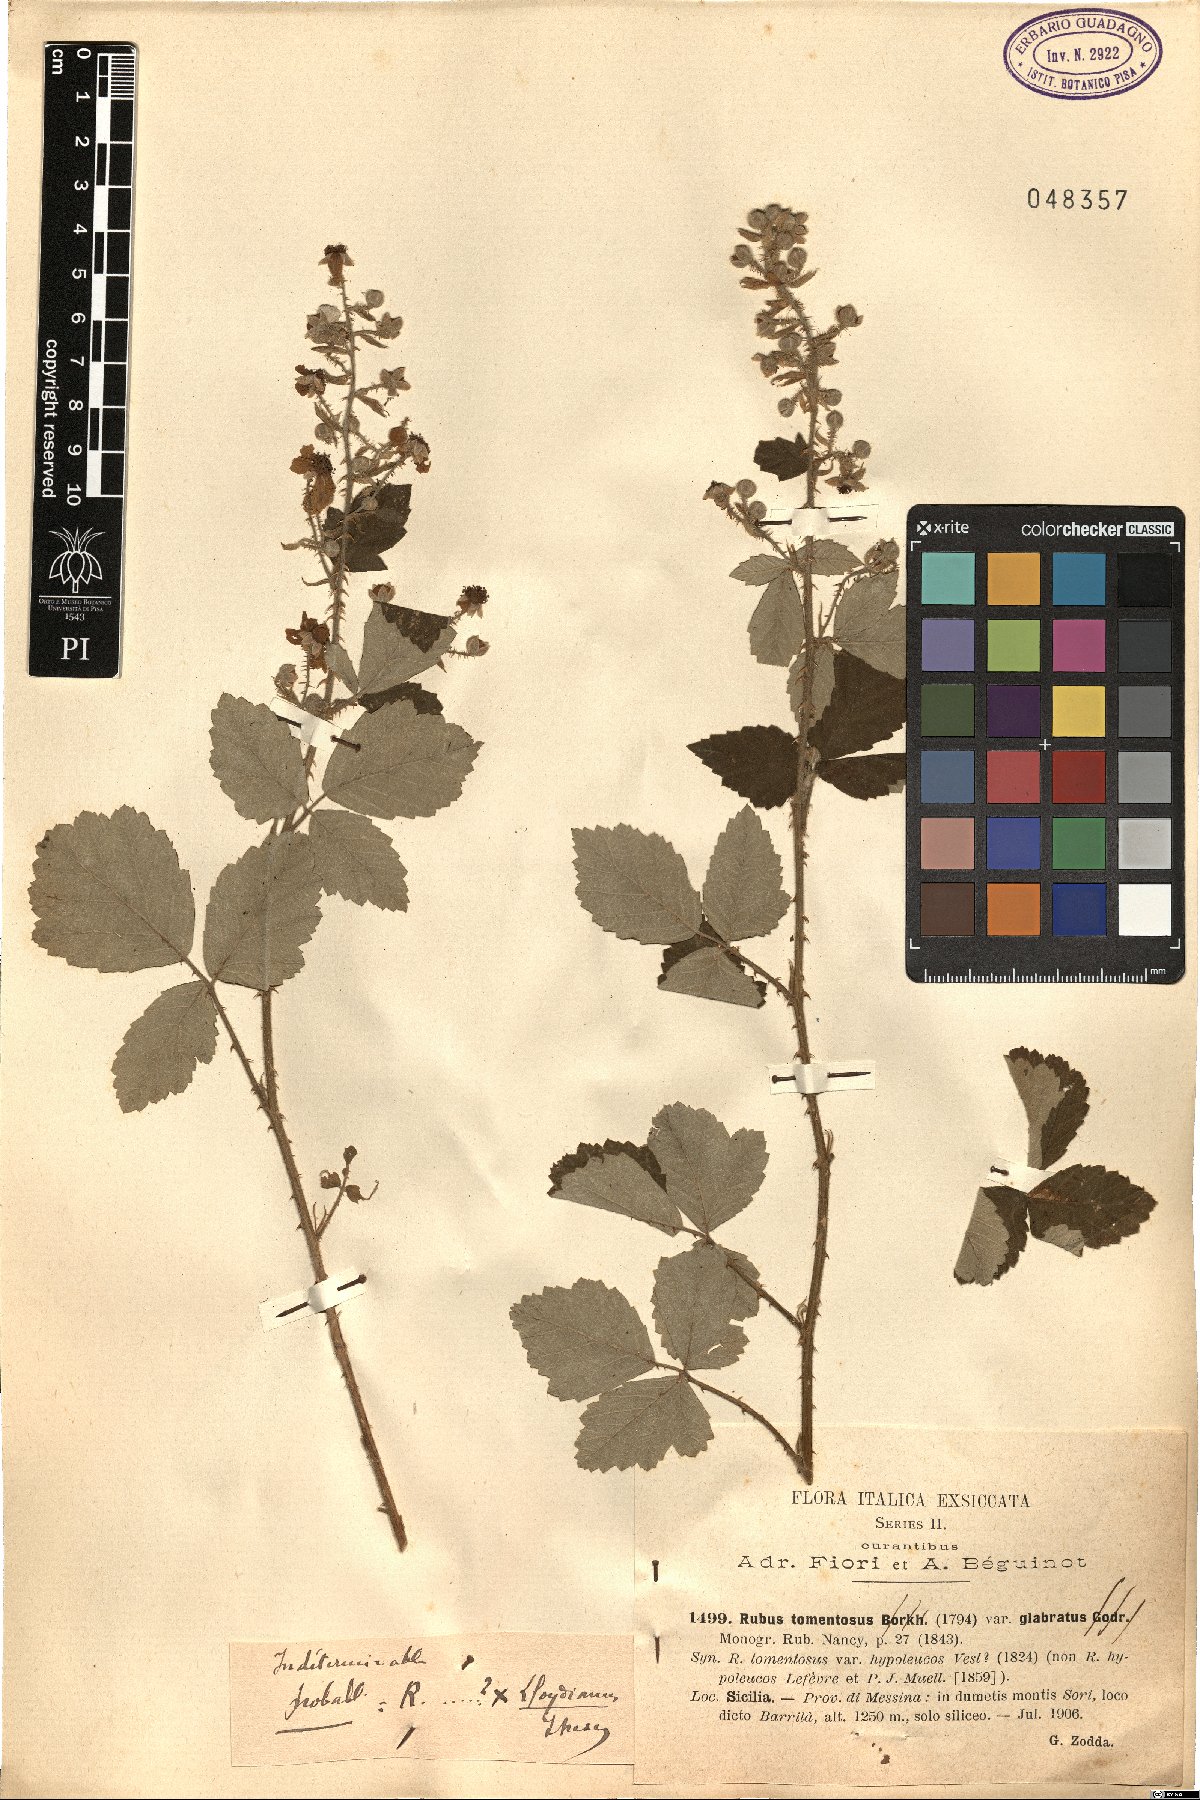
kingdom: Plantae
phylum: Tracheophyta
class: Magnoliopsida
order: Rosales
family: Rosaceae
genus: Rubus
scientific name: Rubus aetnicus
